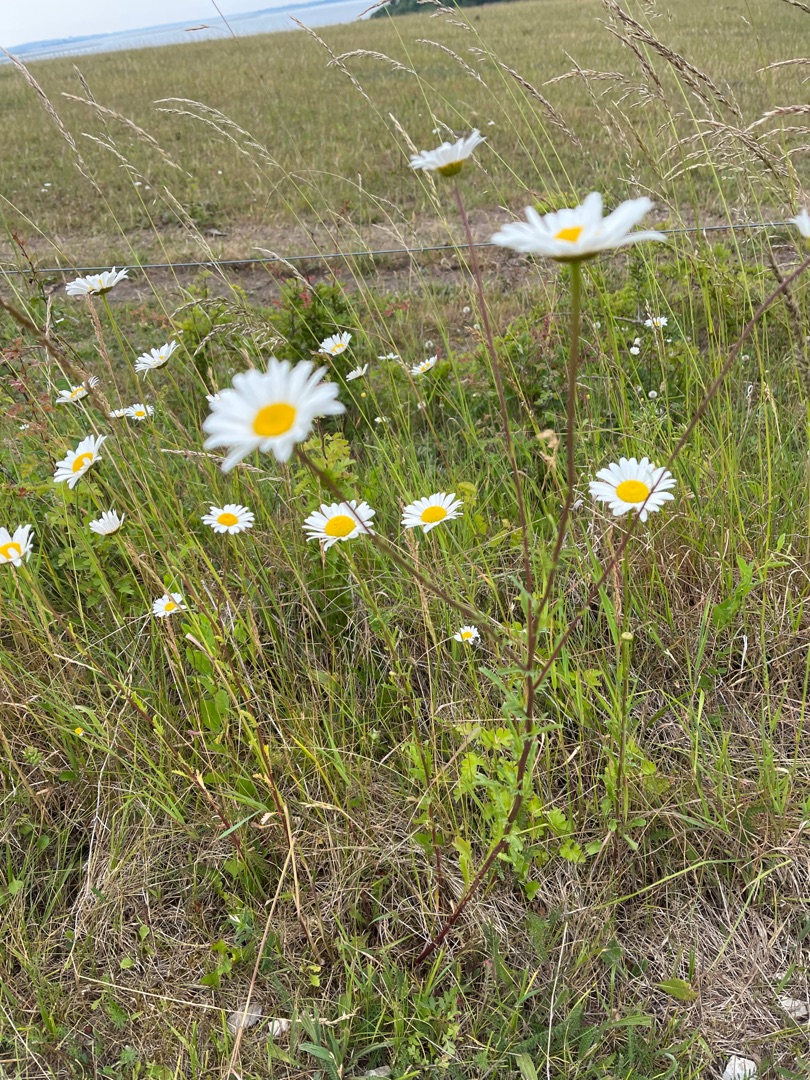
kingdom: Plantae
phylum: Tracheophyta
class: Magnoliopsida
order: Asterales
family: Asteraceae
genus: Leucanthemum
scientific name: Leucanthemum vulgare
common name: Hvid okseøje
